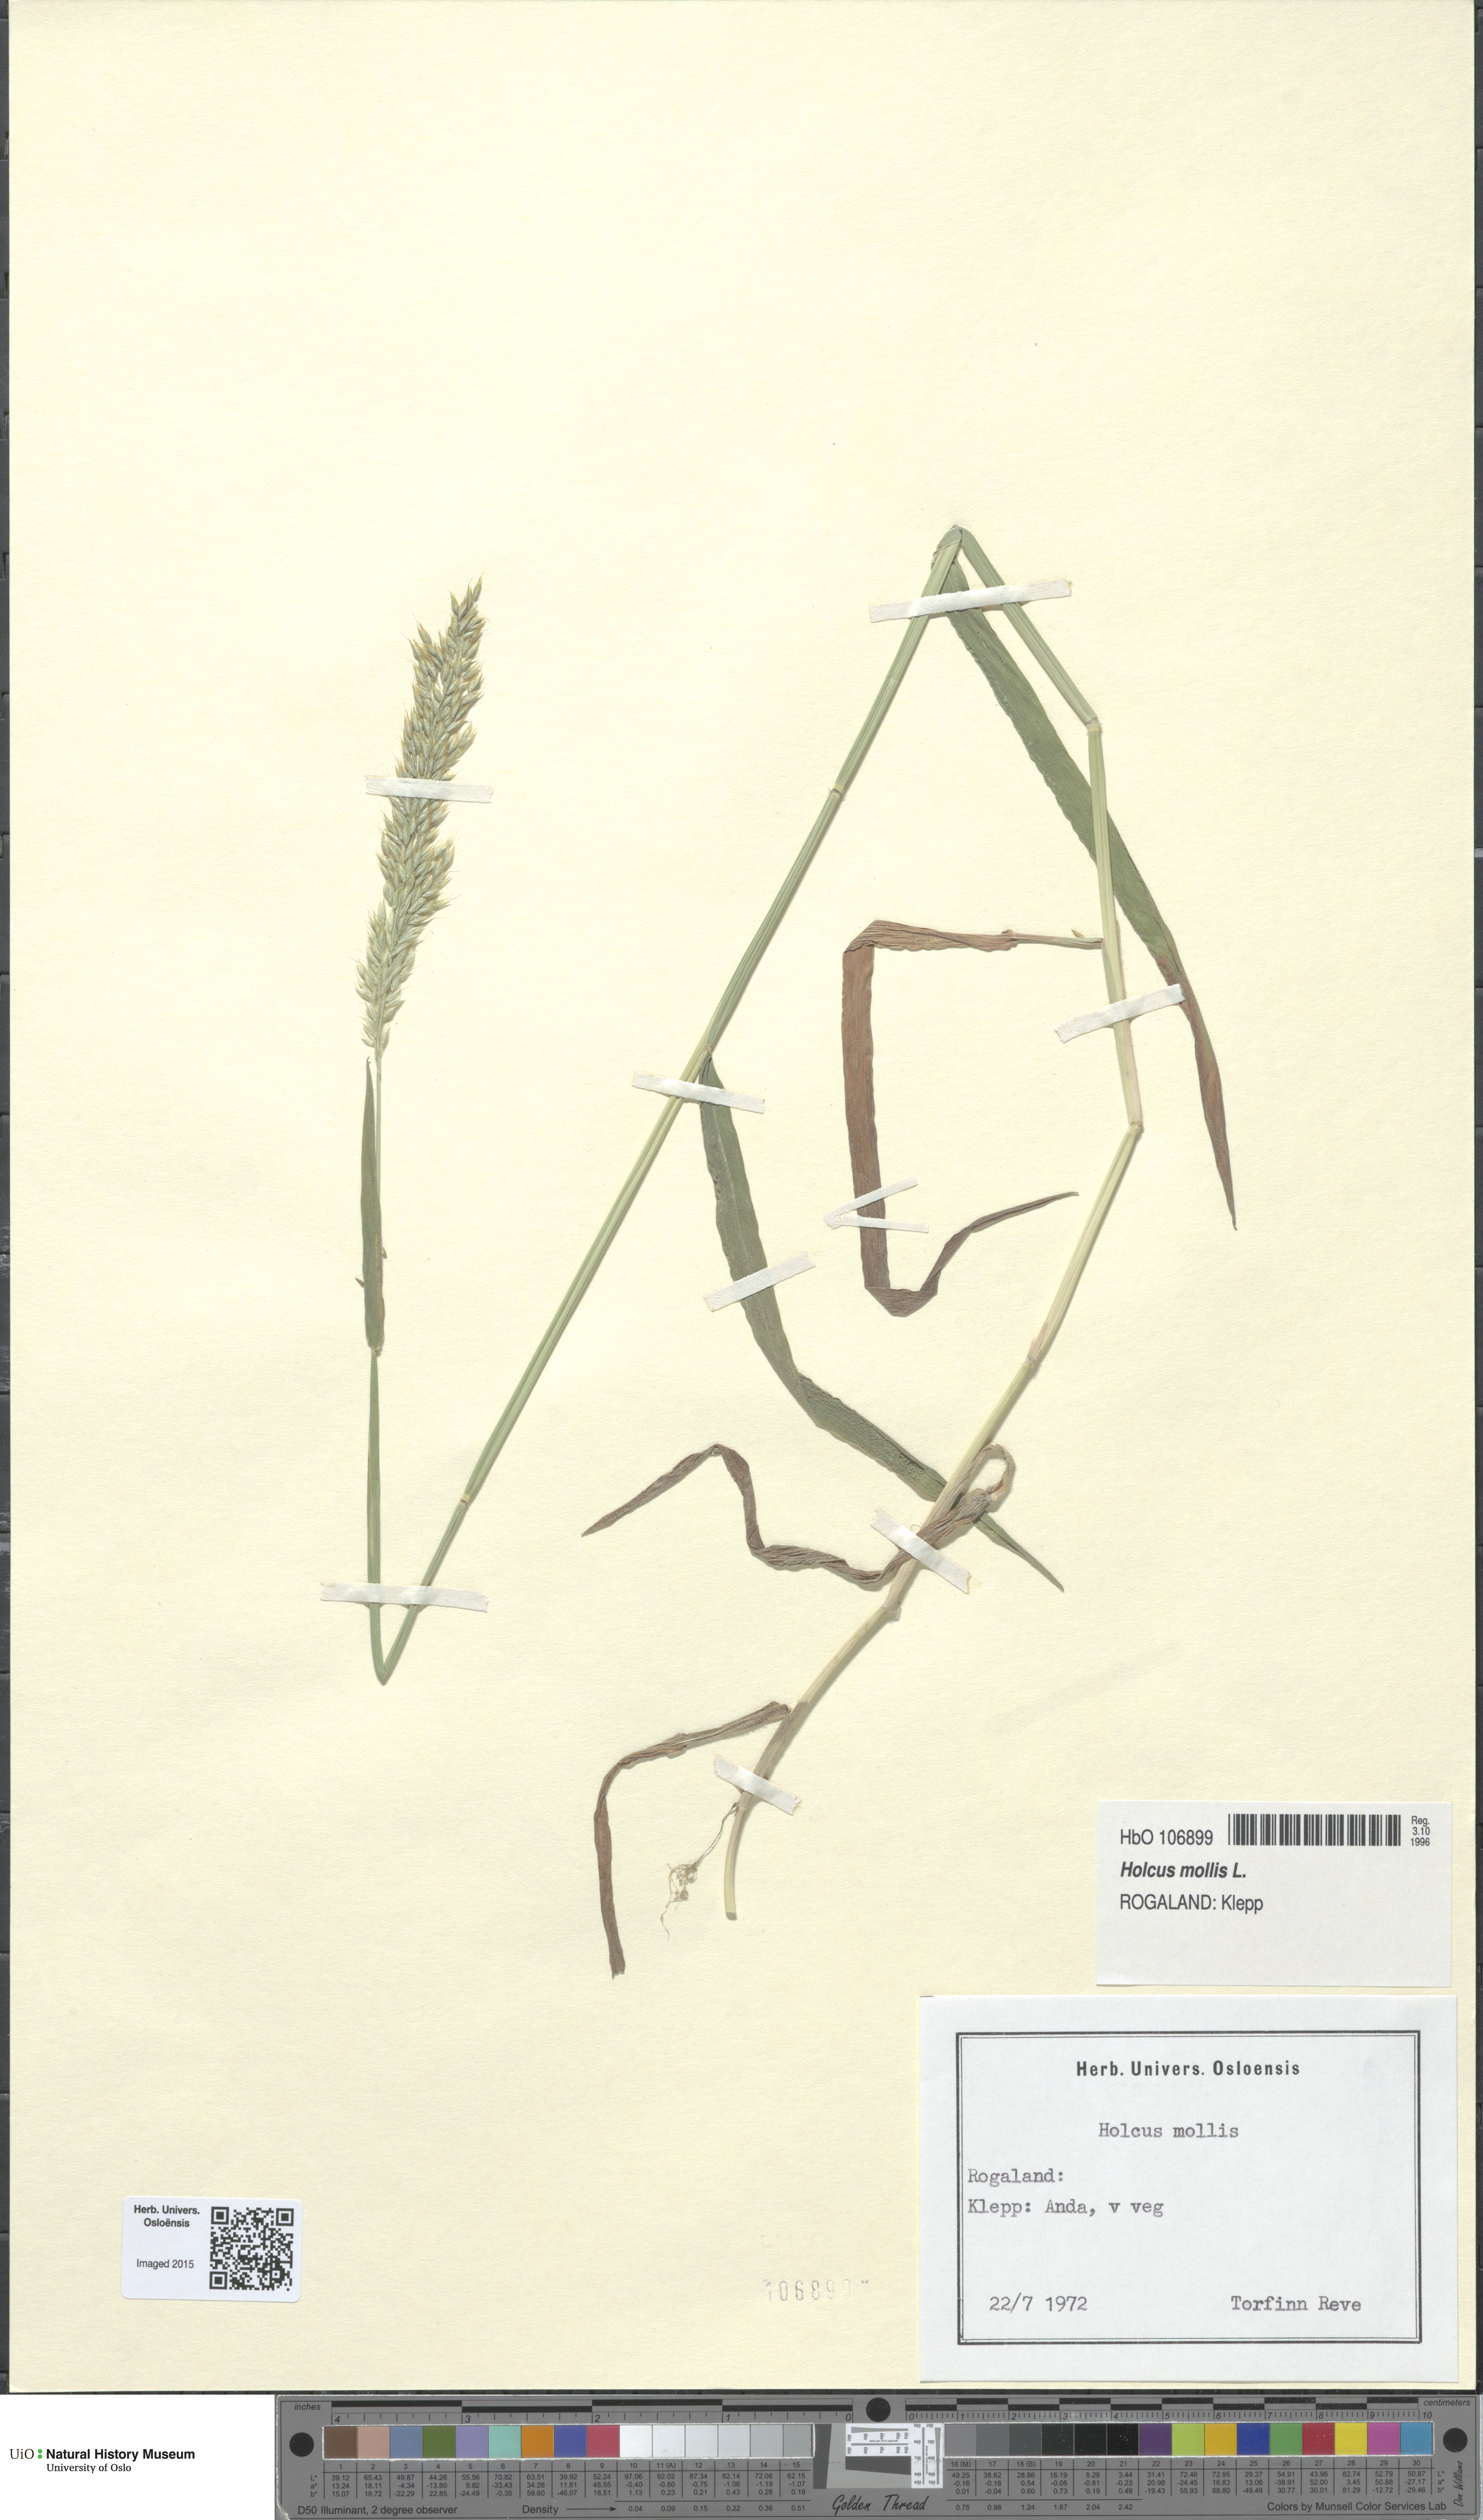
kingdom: Plantae
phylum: Tracheophyta
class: Liliopsida
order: Poales
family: Poaceae
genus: Holcus
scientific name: Holcus mollis
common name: Creeping velvetgrass
